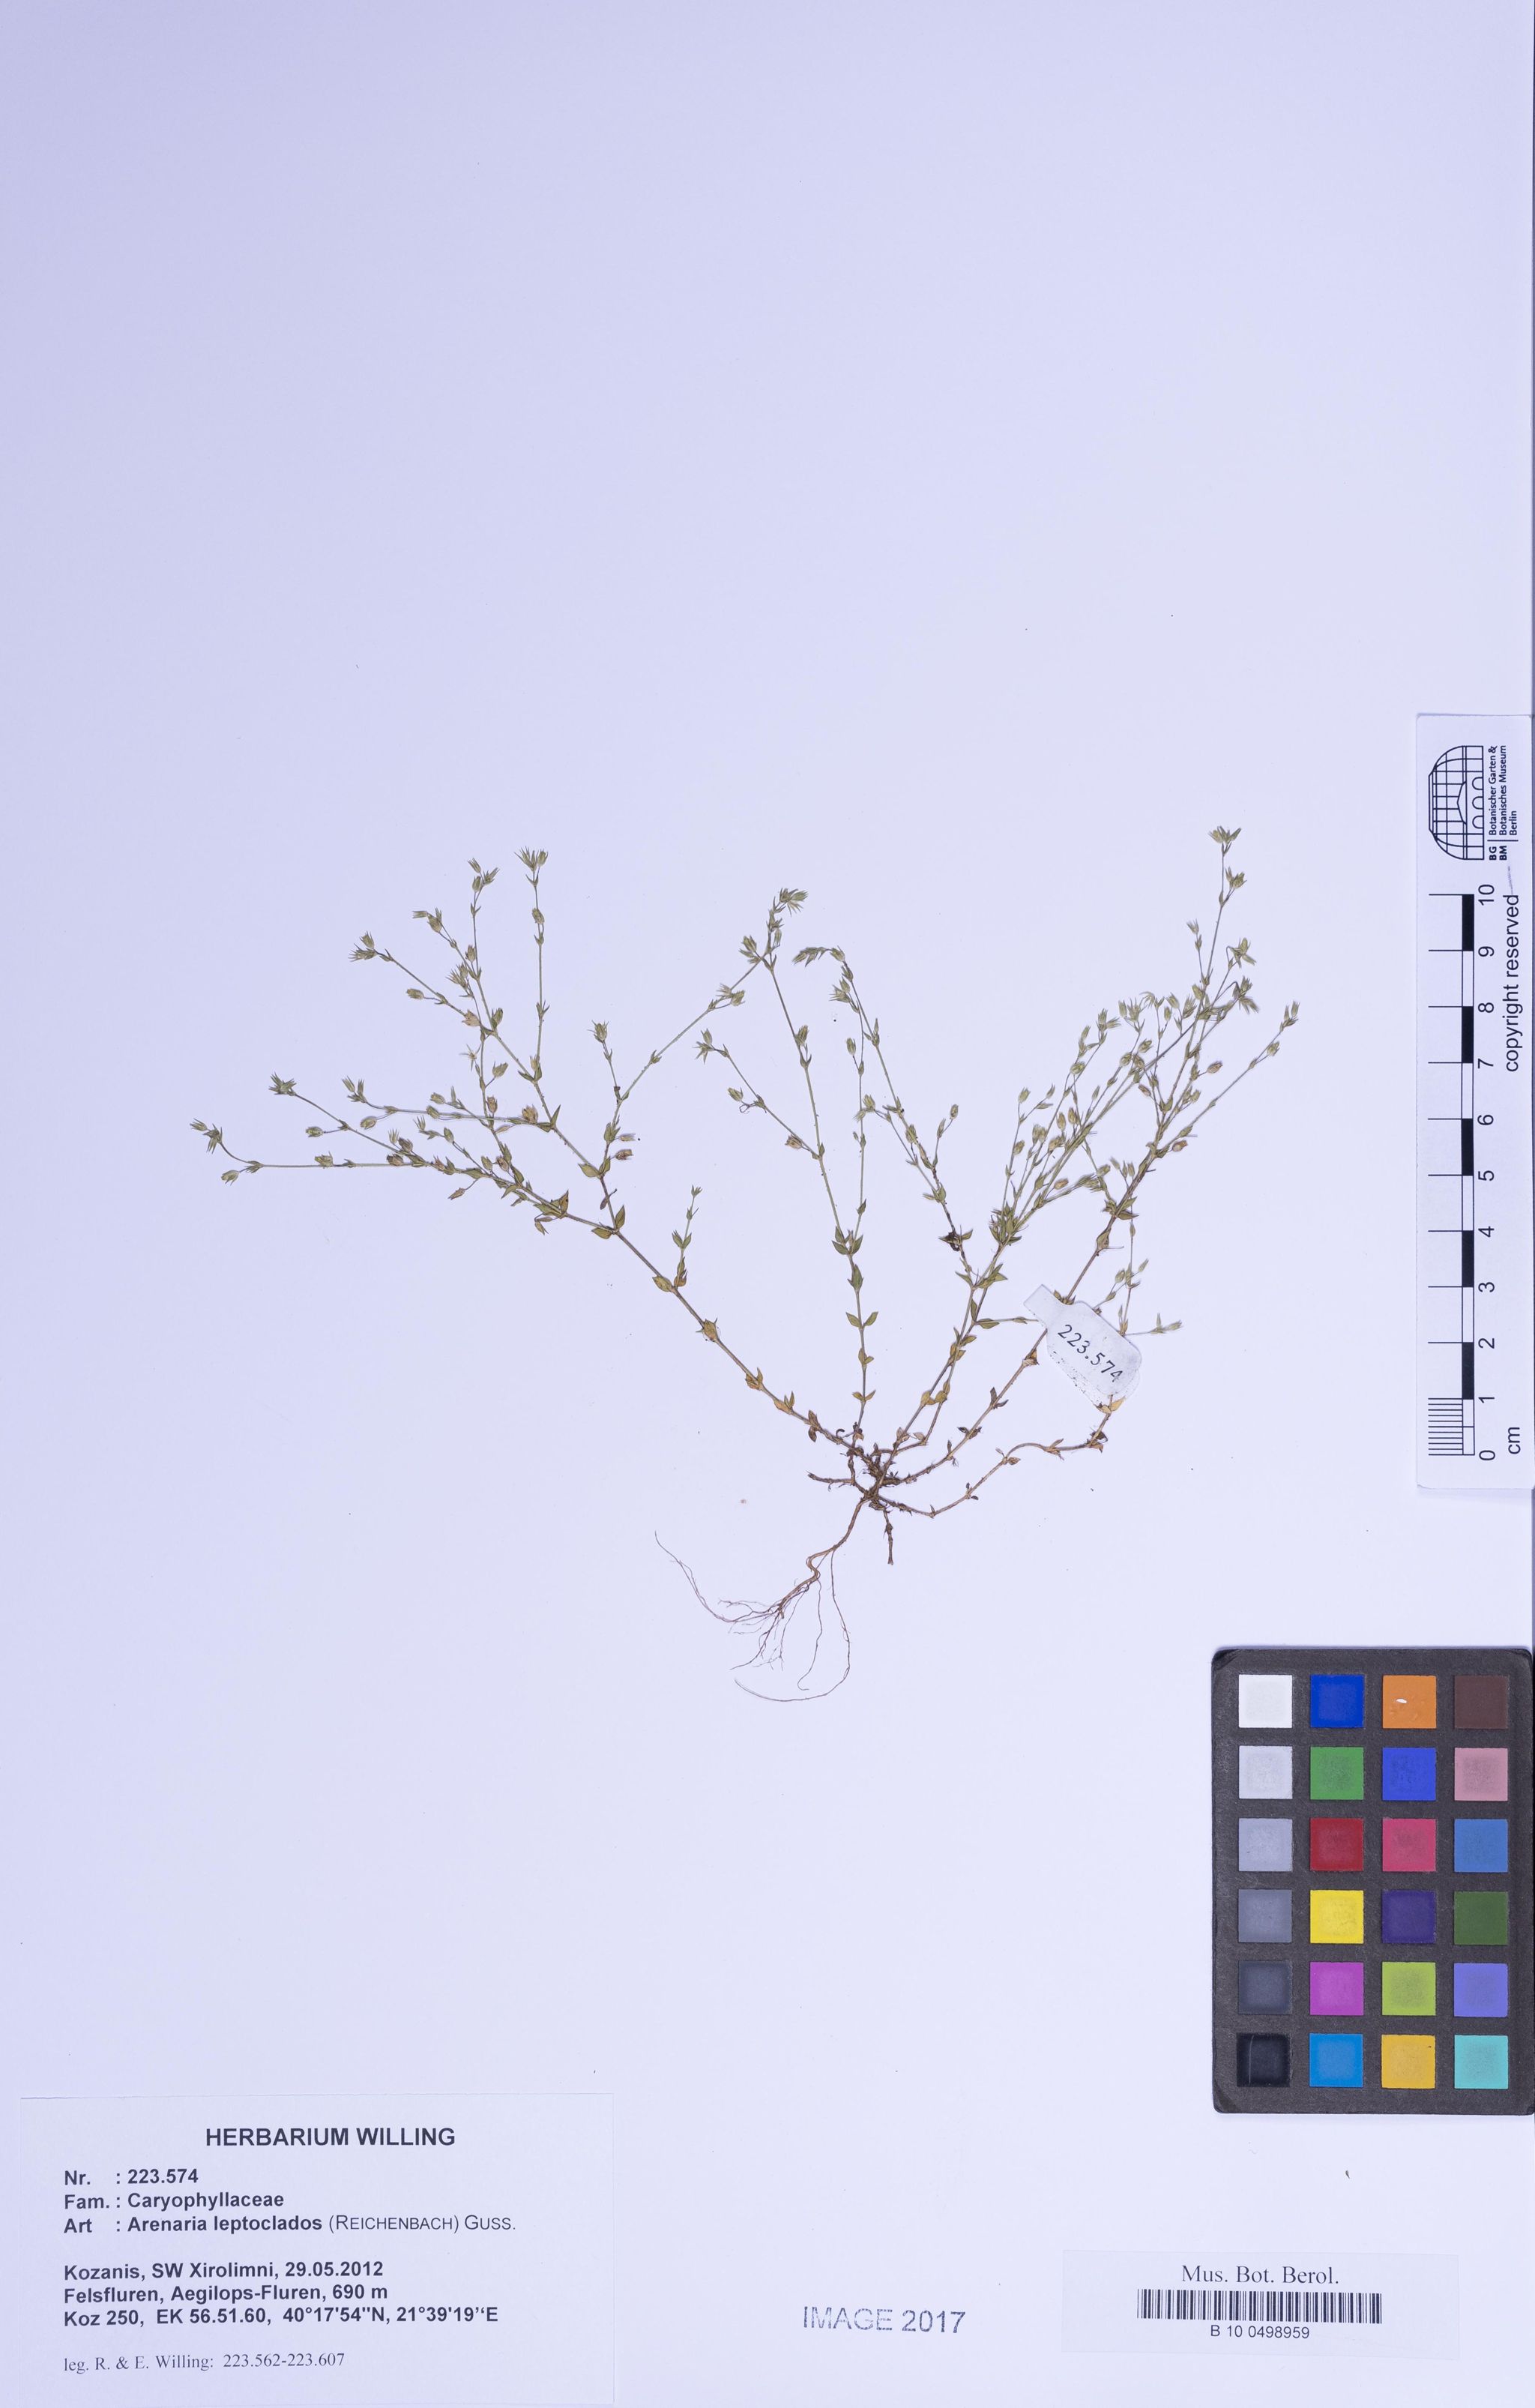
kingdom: Plantae
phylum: Tracheophyta
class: Magnoliopsida
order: Caryophyllales
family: Caryophyllaceae
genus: Arenaria
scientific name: Arenaria leptoclados
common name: Thyme-leaved sandwort
